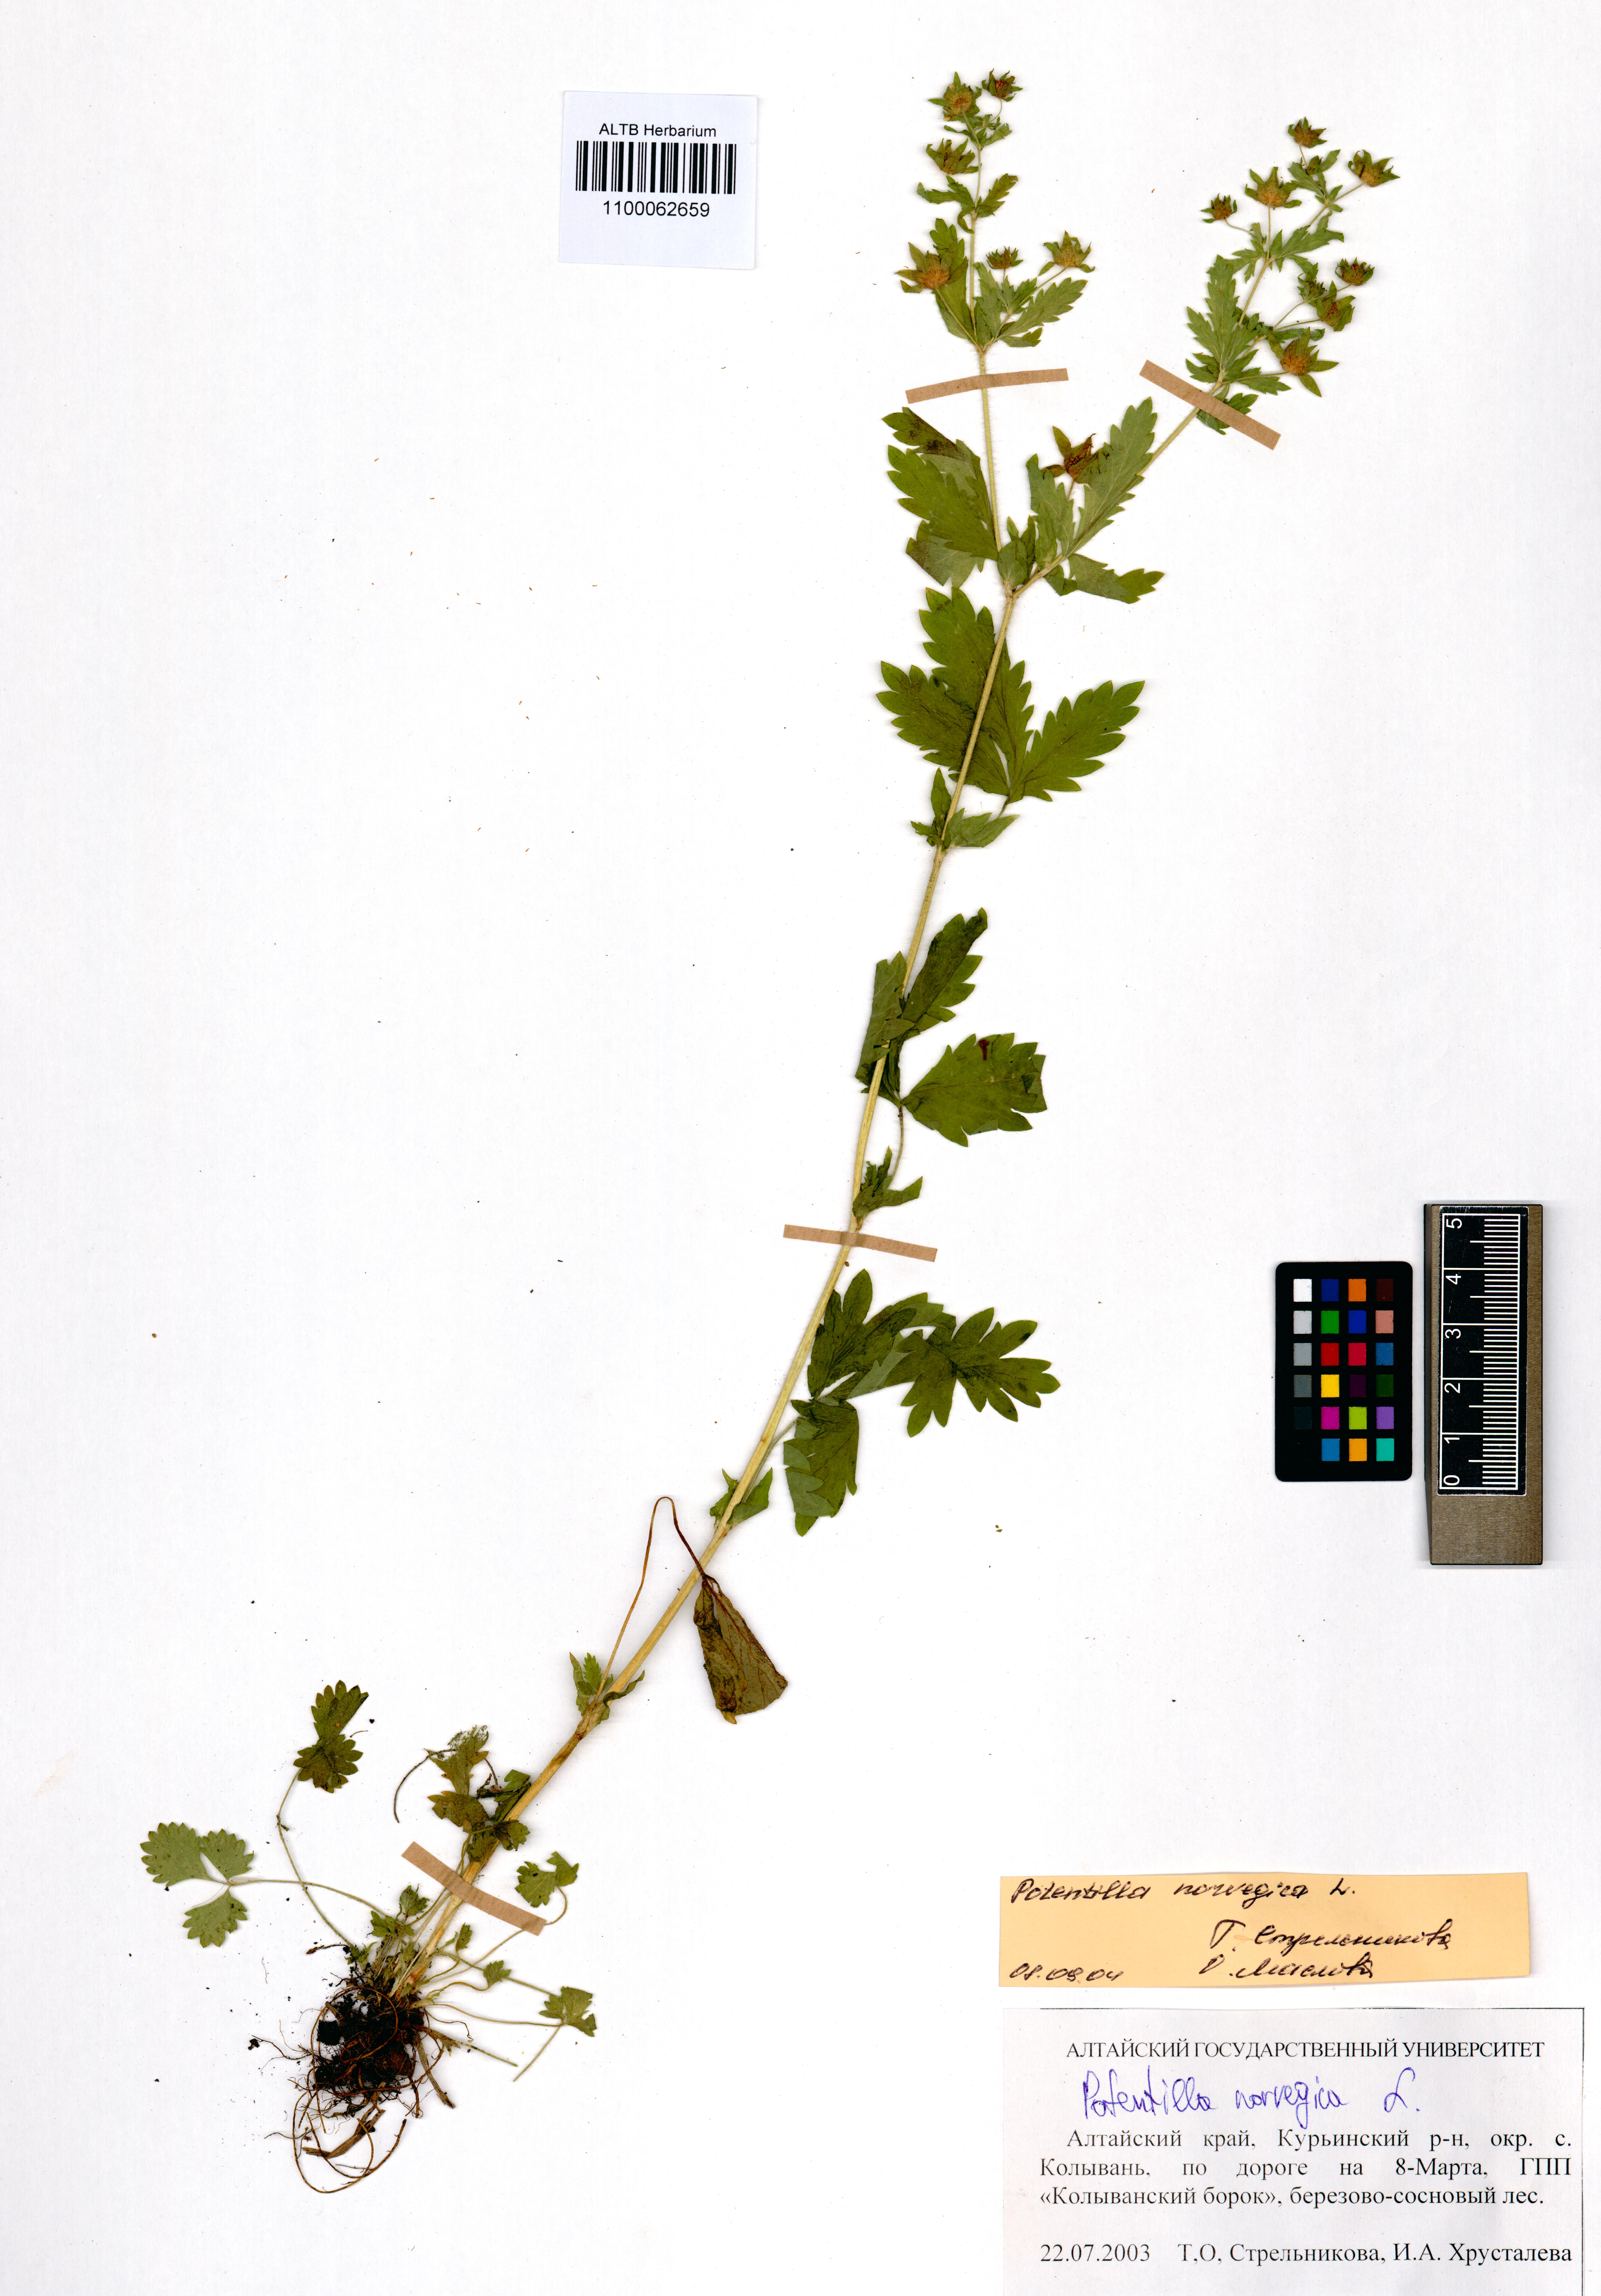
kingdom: Plantae
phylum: Tracheophyta
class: Magnoliopsida
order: Rosales
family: Rosaceae
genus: Potentilla
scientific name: Potentilla norvegica
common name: Ternate-leaved cinquefoil
